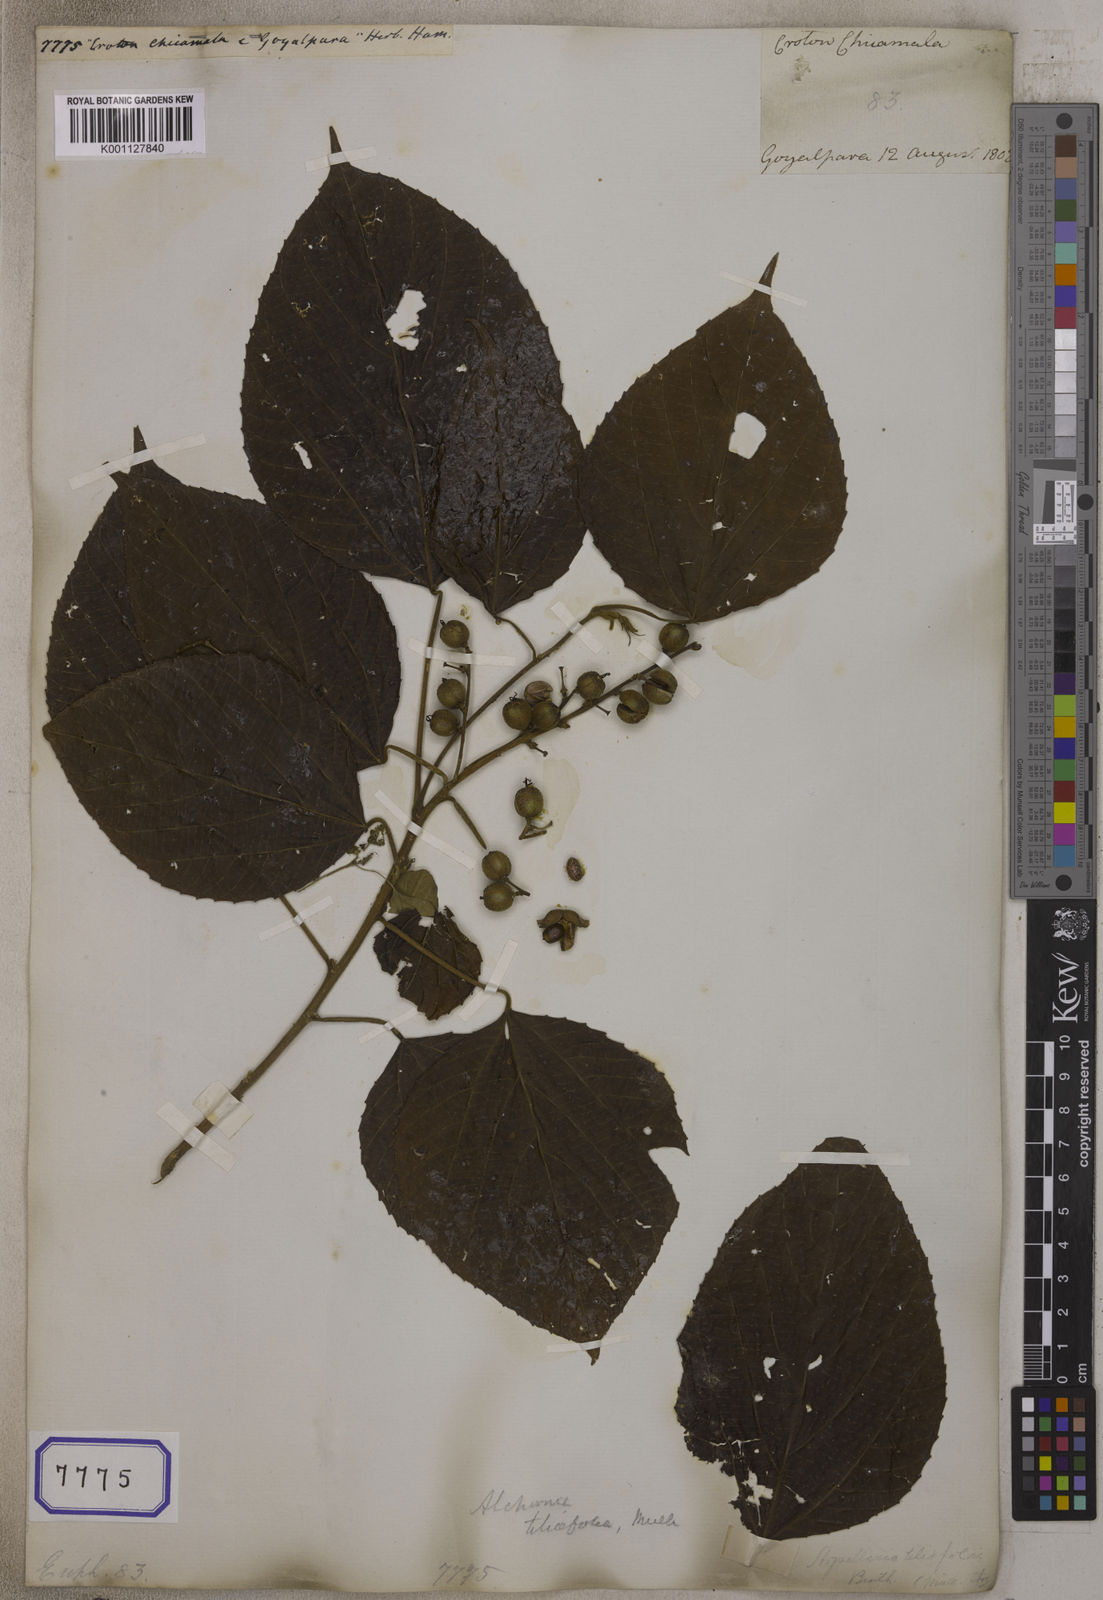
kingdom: Plantae
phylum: Tracheophyta
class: Magnoliopsida
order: Malpighiales
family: Euphorbiaceae
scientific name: Euphorbiaceae
